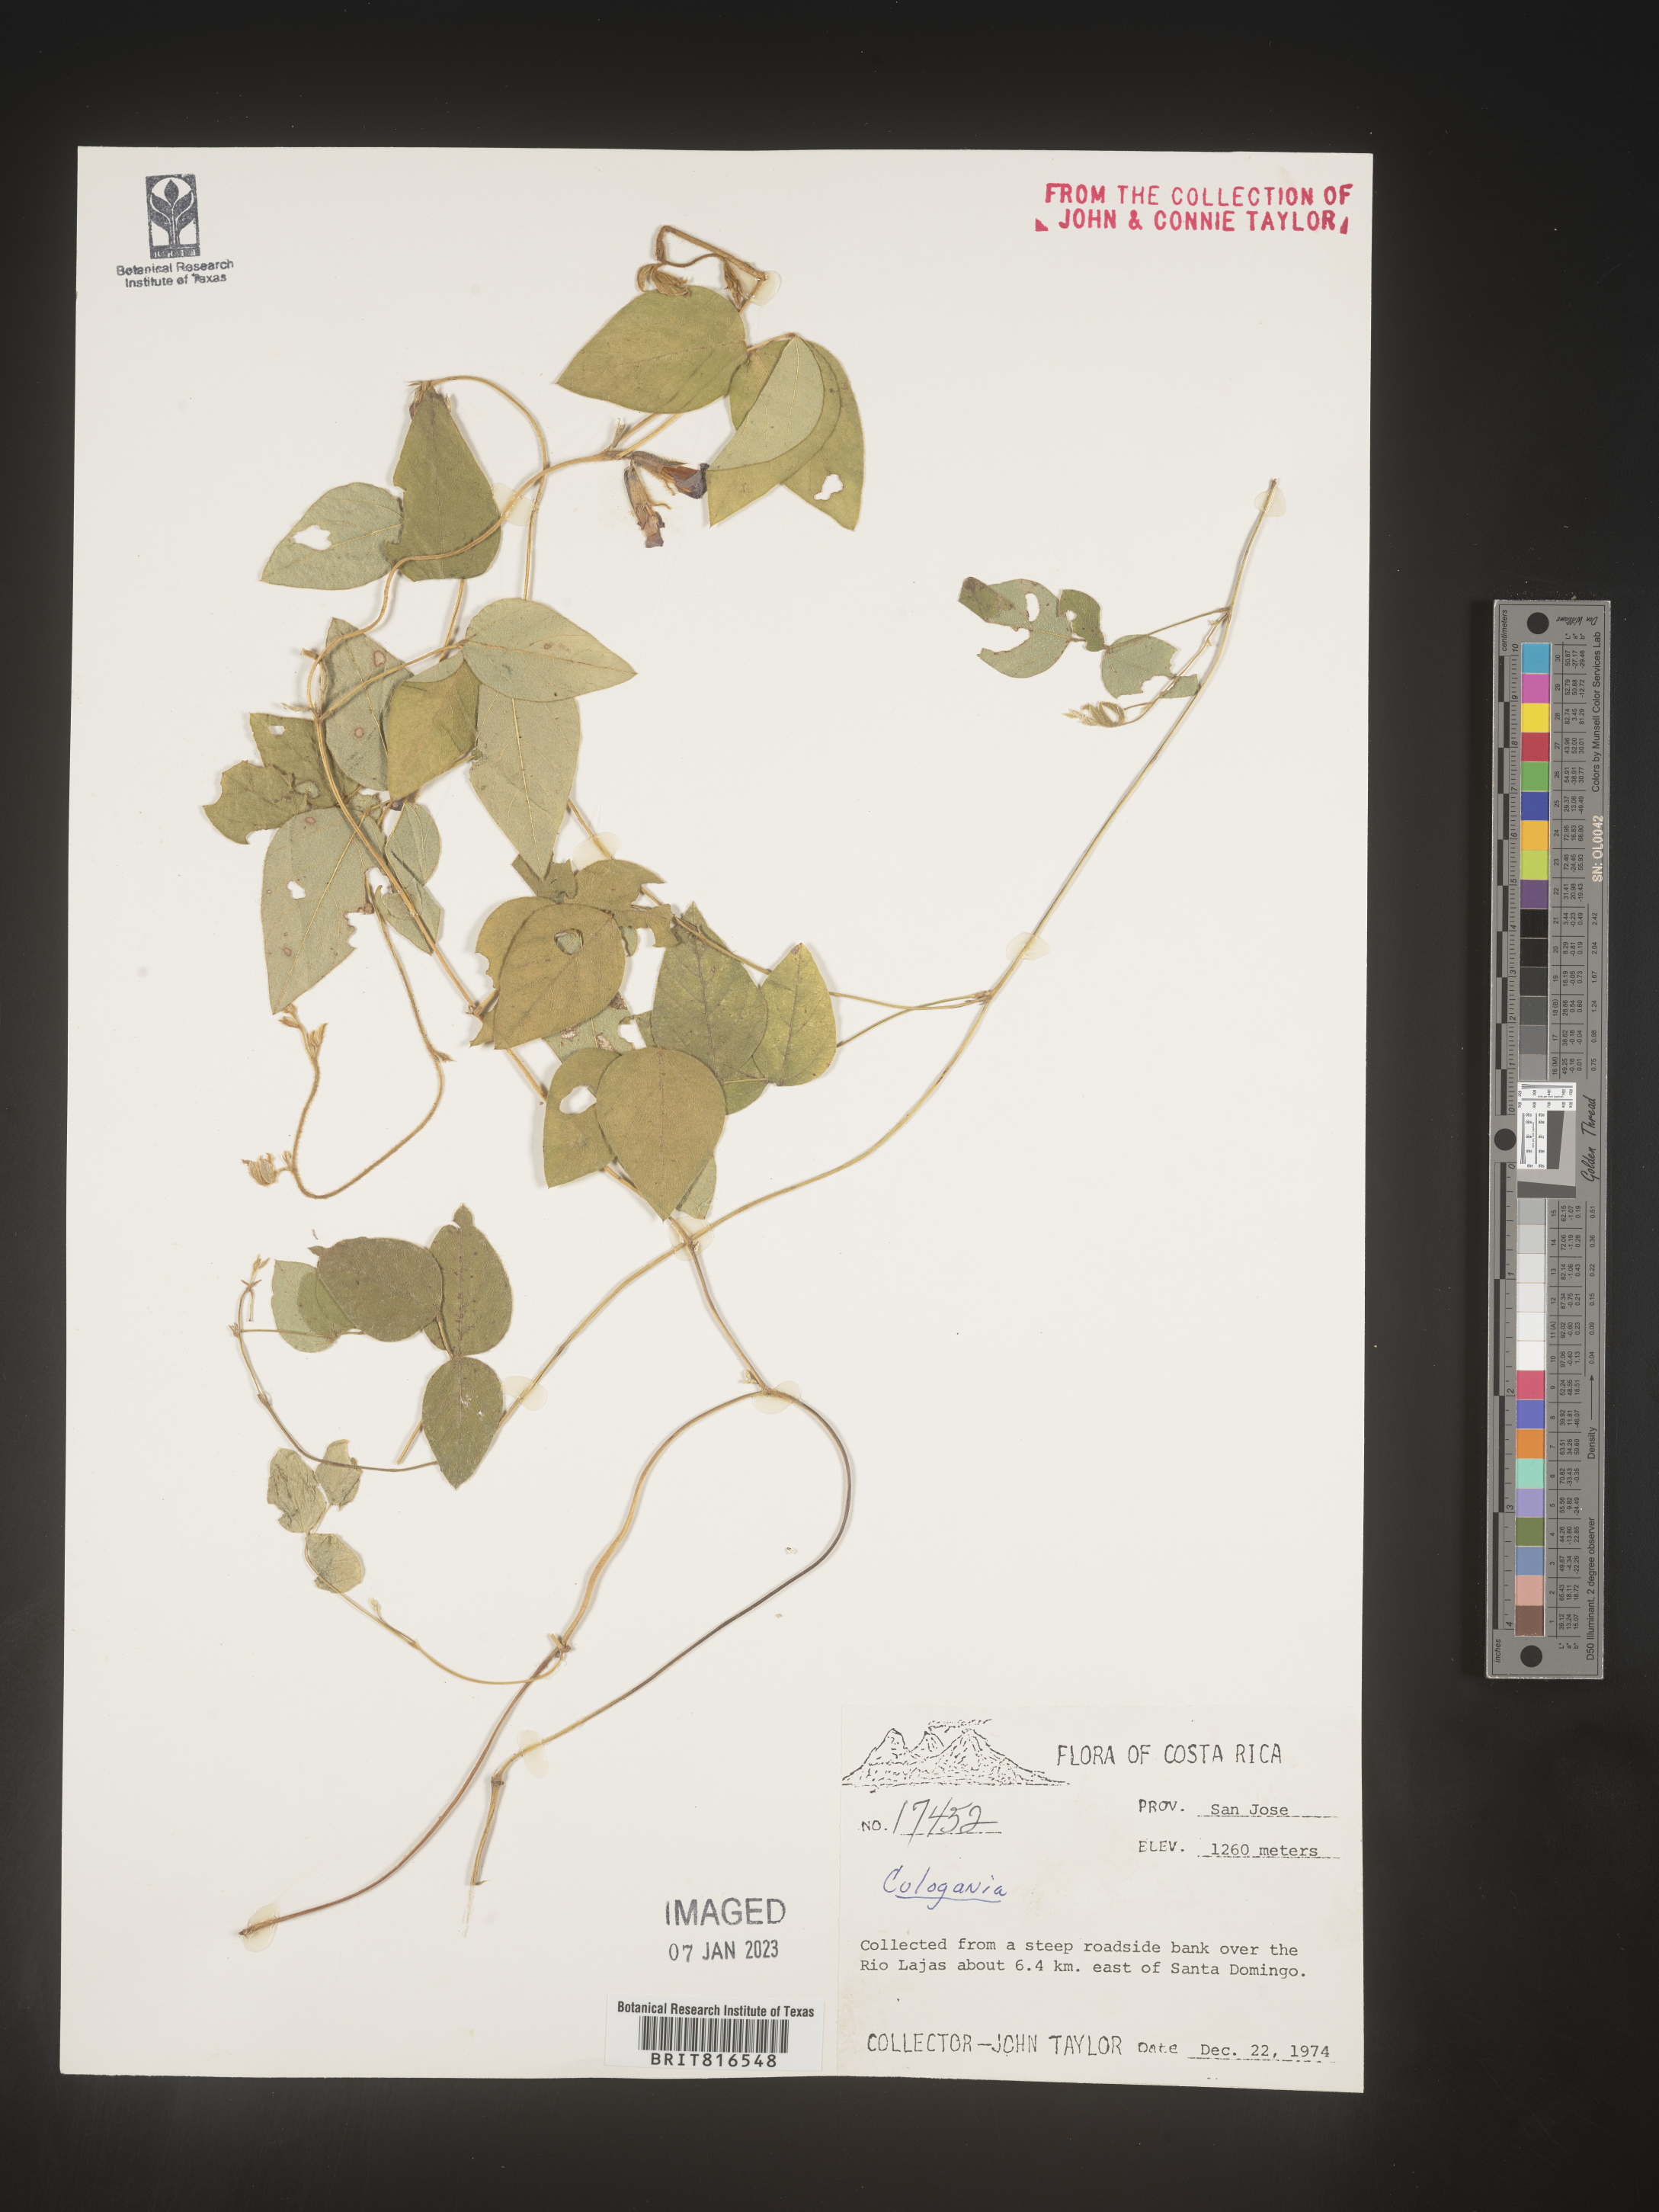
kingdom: Plantae
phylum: Tracheophyta
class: Magnoliopsida
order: Fabales
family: Fabaceae
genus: Cologania
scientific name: Cologania obovata
